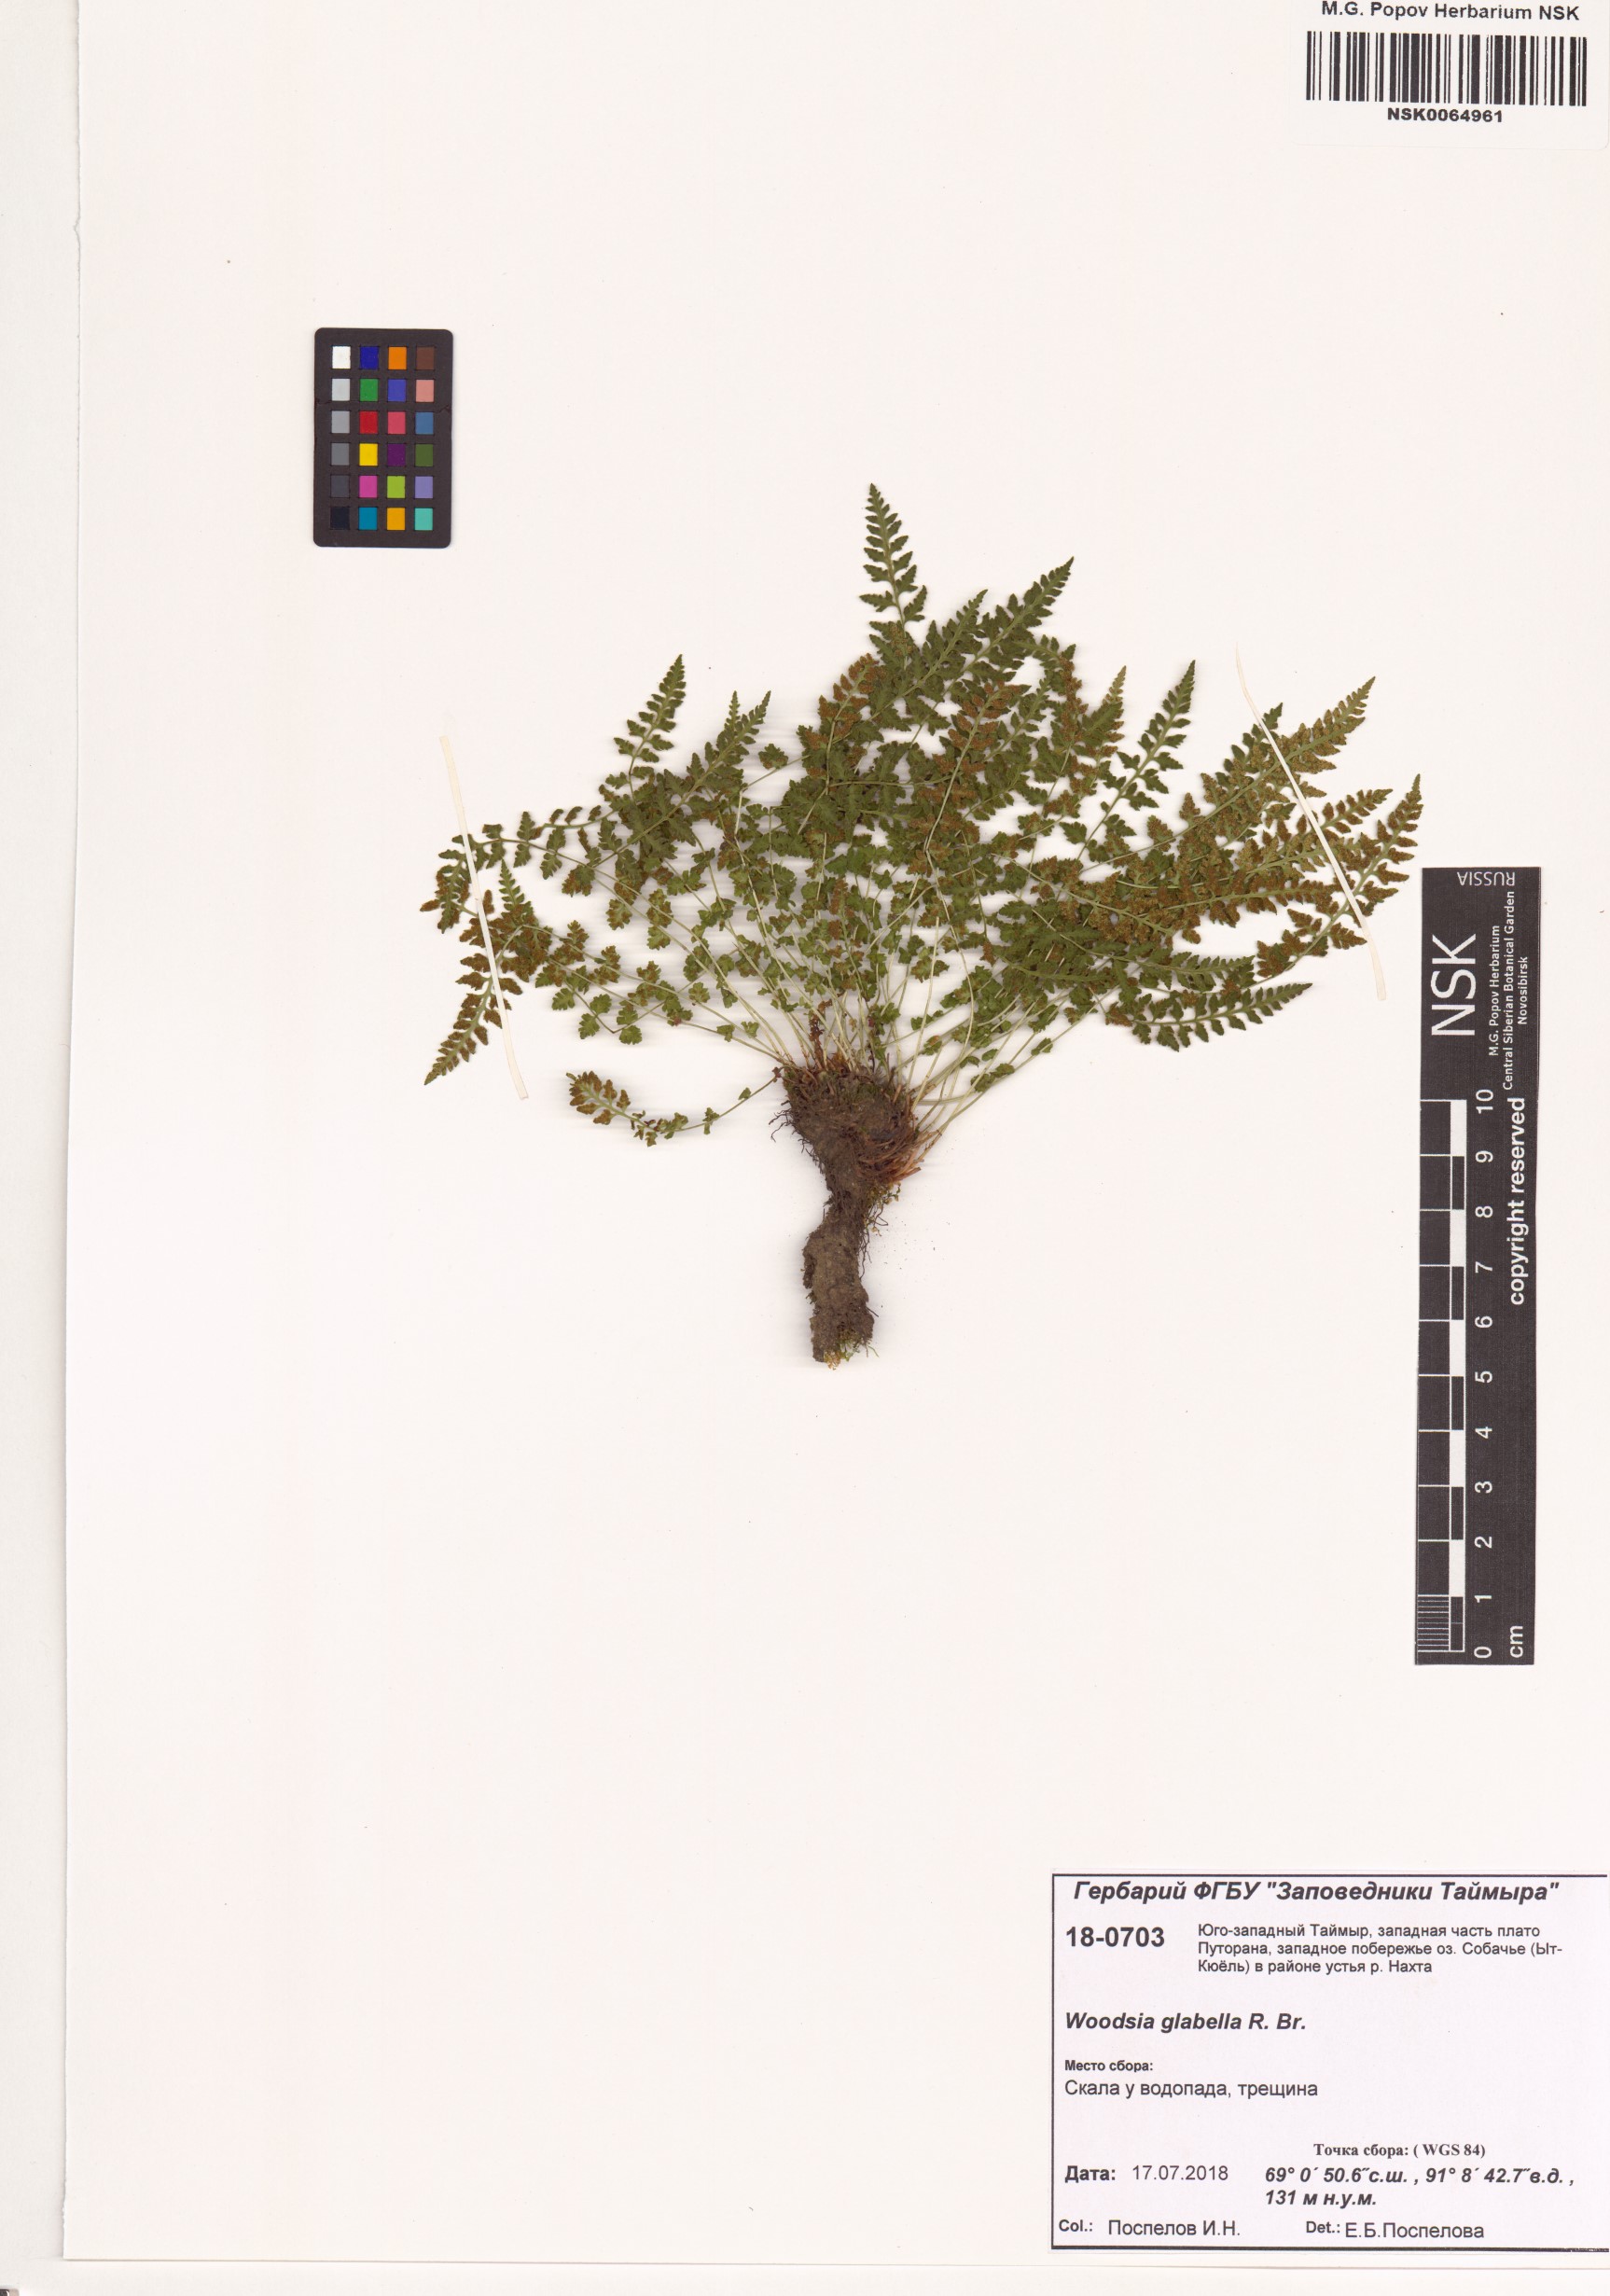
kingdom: Plantae
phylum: Tracheophyta
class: Polypodiopsida
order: Polypodiales
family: Woodsiaceae
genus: Woodsia
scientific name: Woodsia glabella
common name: Smooth woodsia
